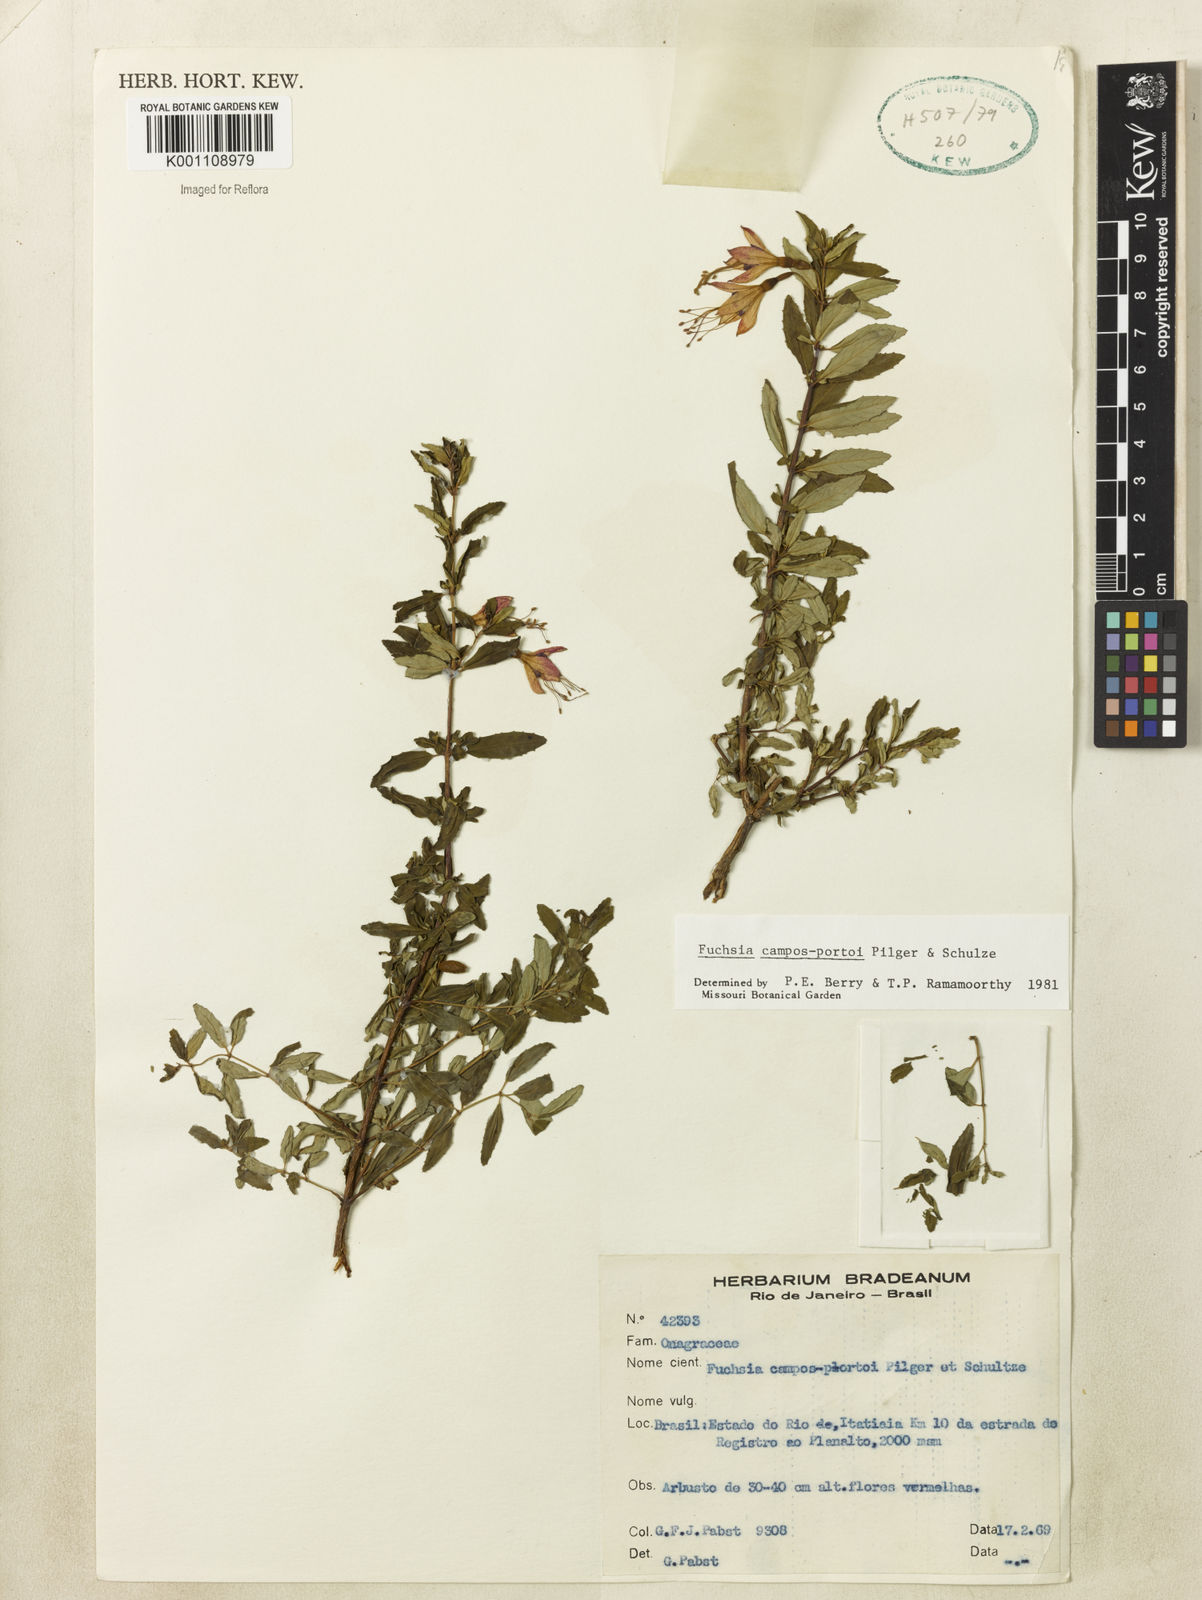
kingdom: Plantae
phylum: Tracheophyta
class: Magnoliopsida
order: Myrtales
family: Onagraceae
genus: Fuchsia
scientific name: Fuchsia campos-portoi
